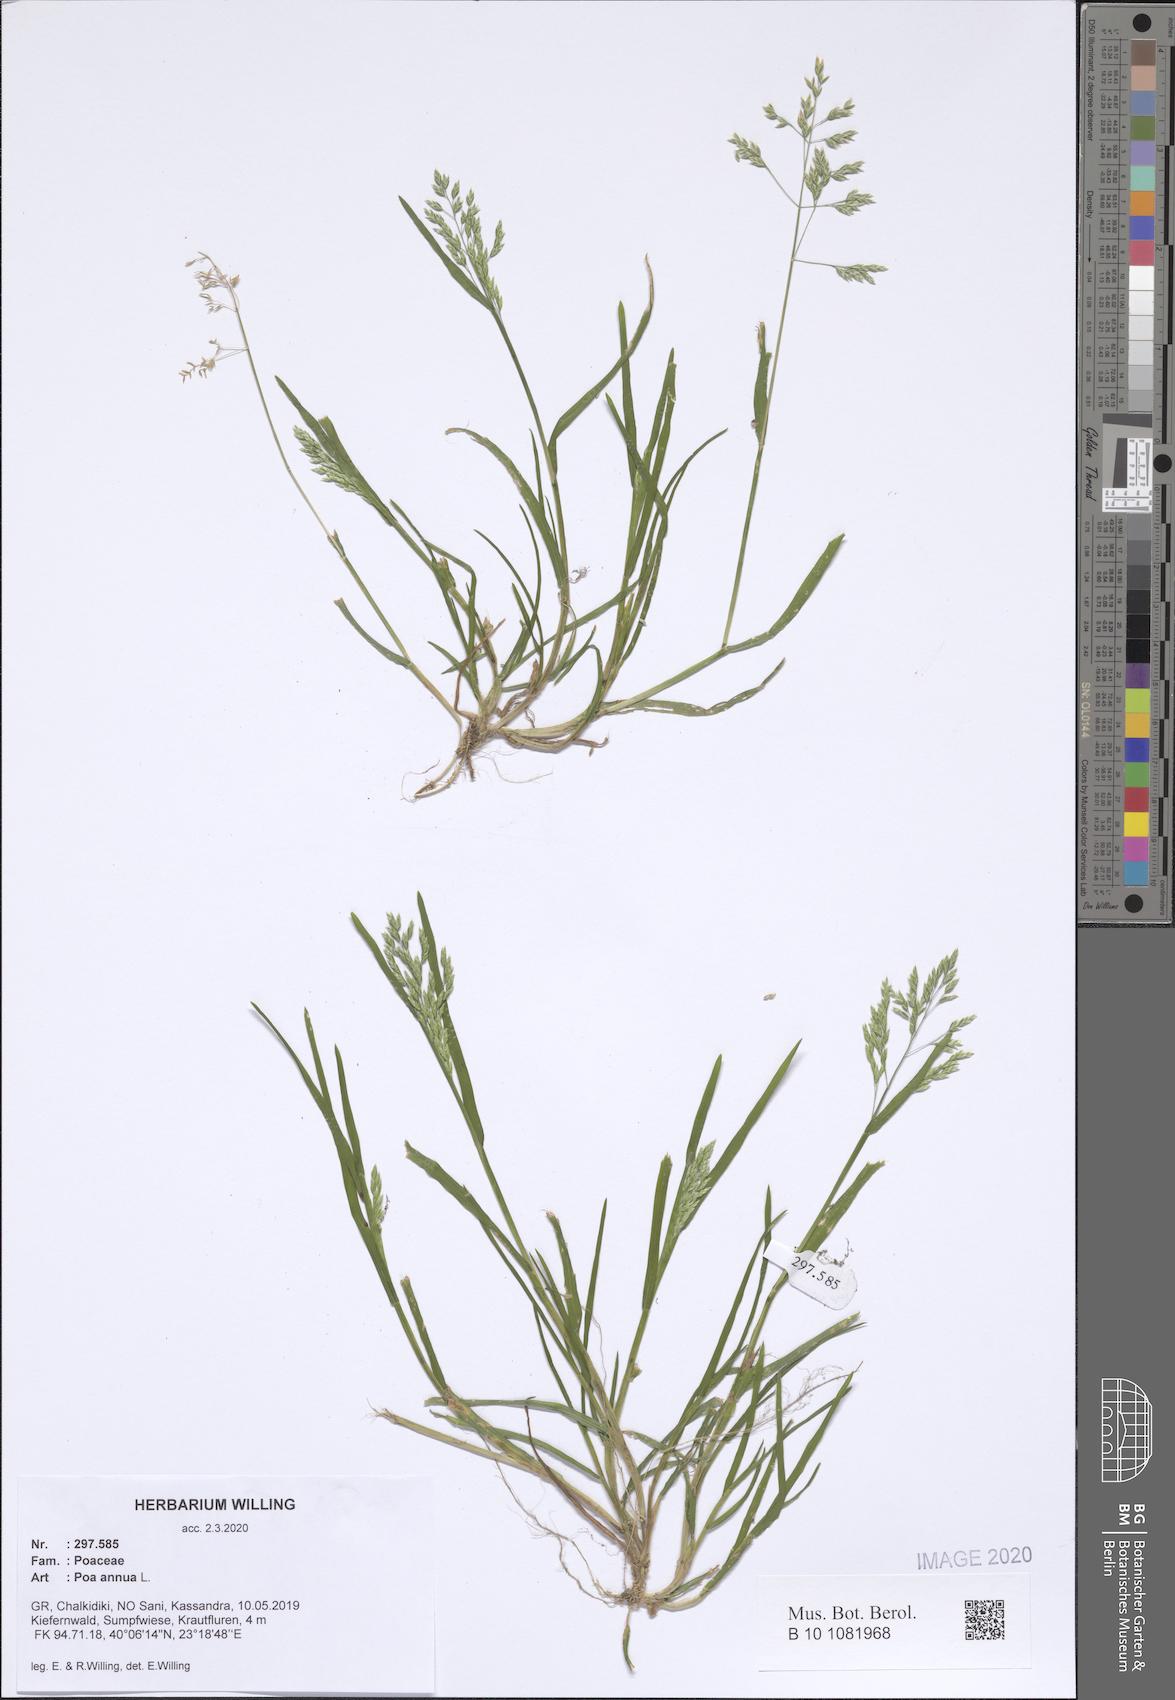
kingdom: Plantae
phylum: Tracheophyta
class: Liliopsida
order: Poales
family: Poaceae
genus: Poa
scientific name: Poa annua
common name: Annual bluegrass
